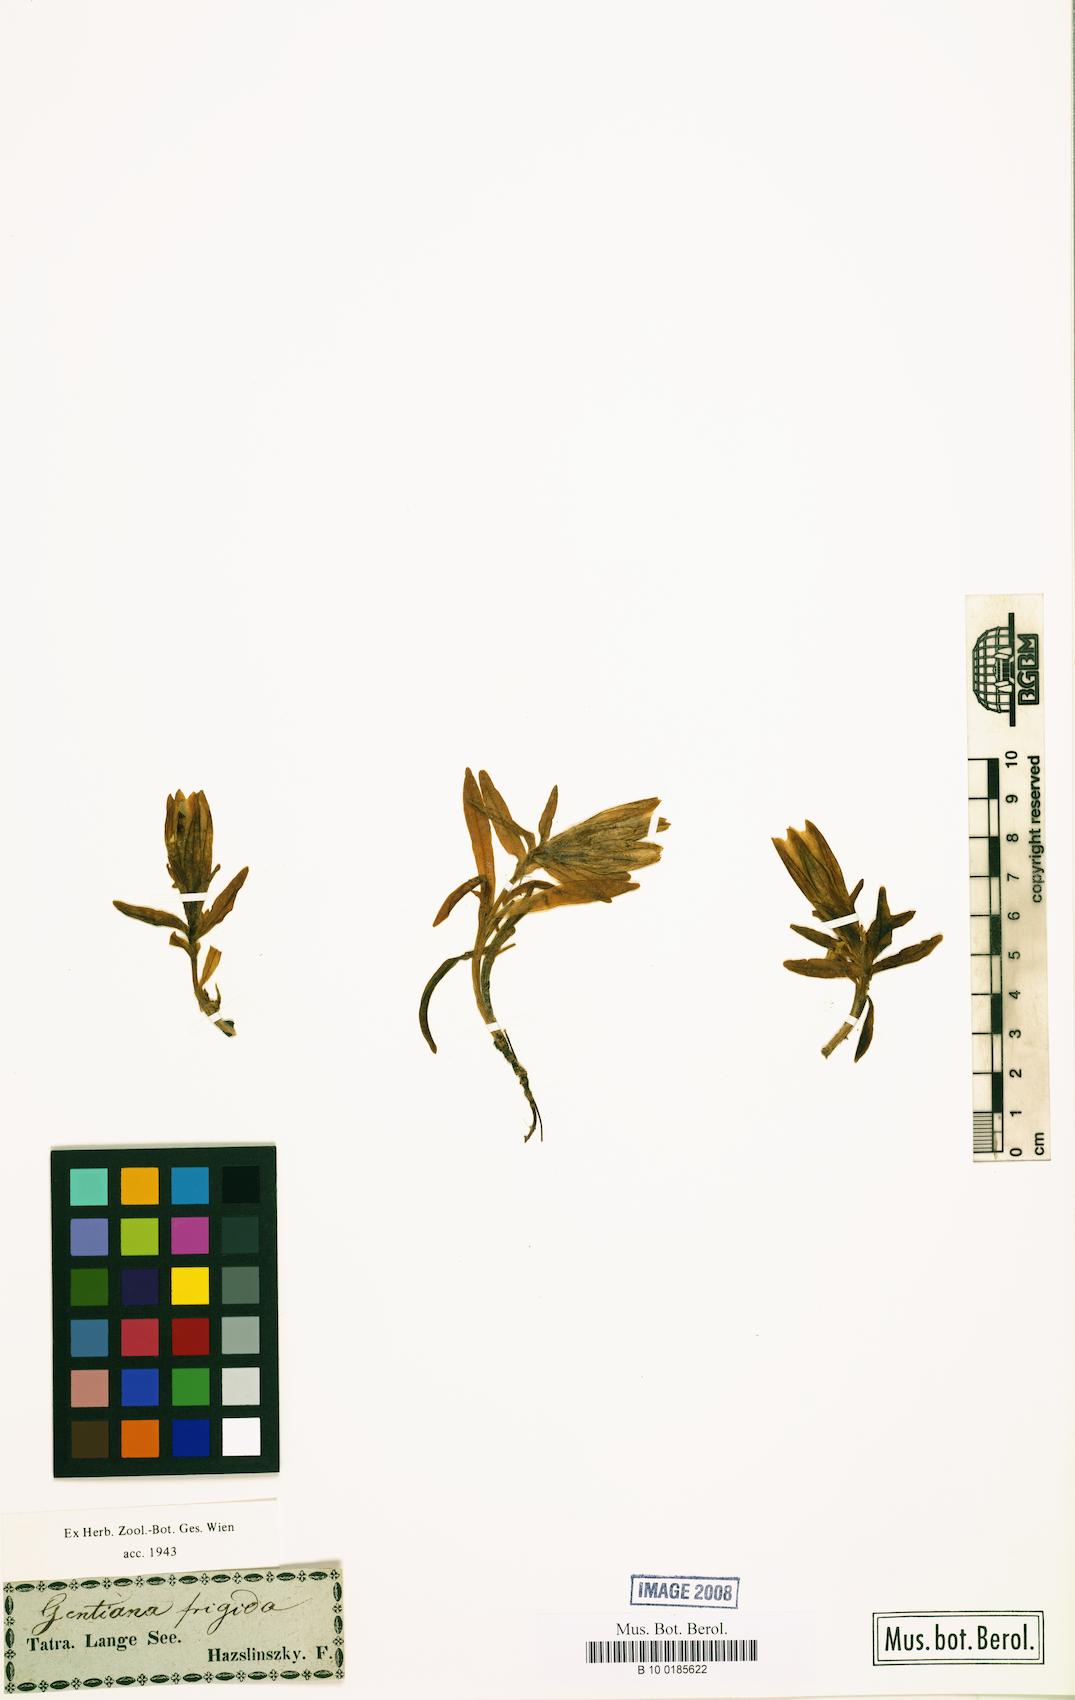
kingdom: Plantae
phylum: Tracheophyta
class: Magnoliopsida
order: Gentianales
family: Gentianaceae
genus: Gentiana
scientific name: Gentiana frigida
